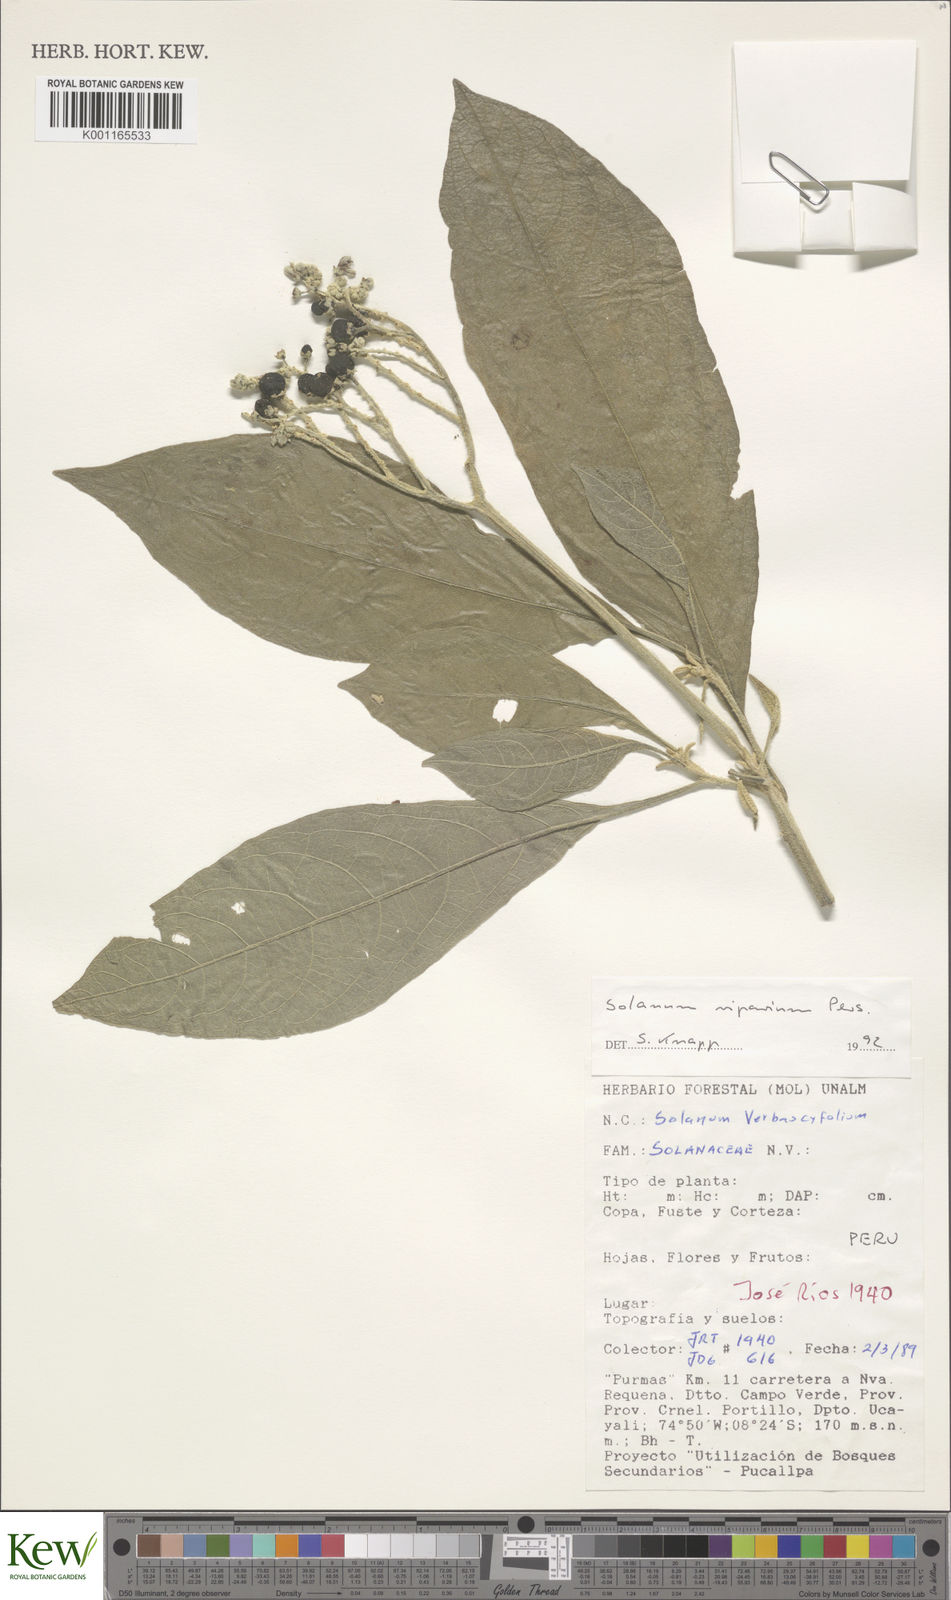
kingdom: Plantae
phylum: Tracheophyta
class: Magnoliopsida
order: Solanales
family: Solanaceae
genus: Solanum
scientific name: Solanum riparium
